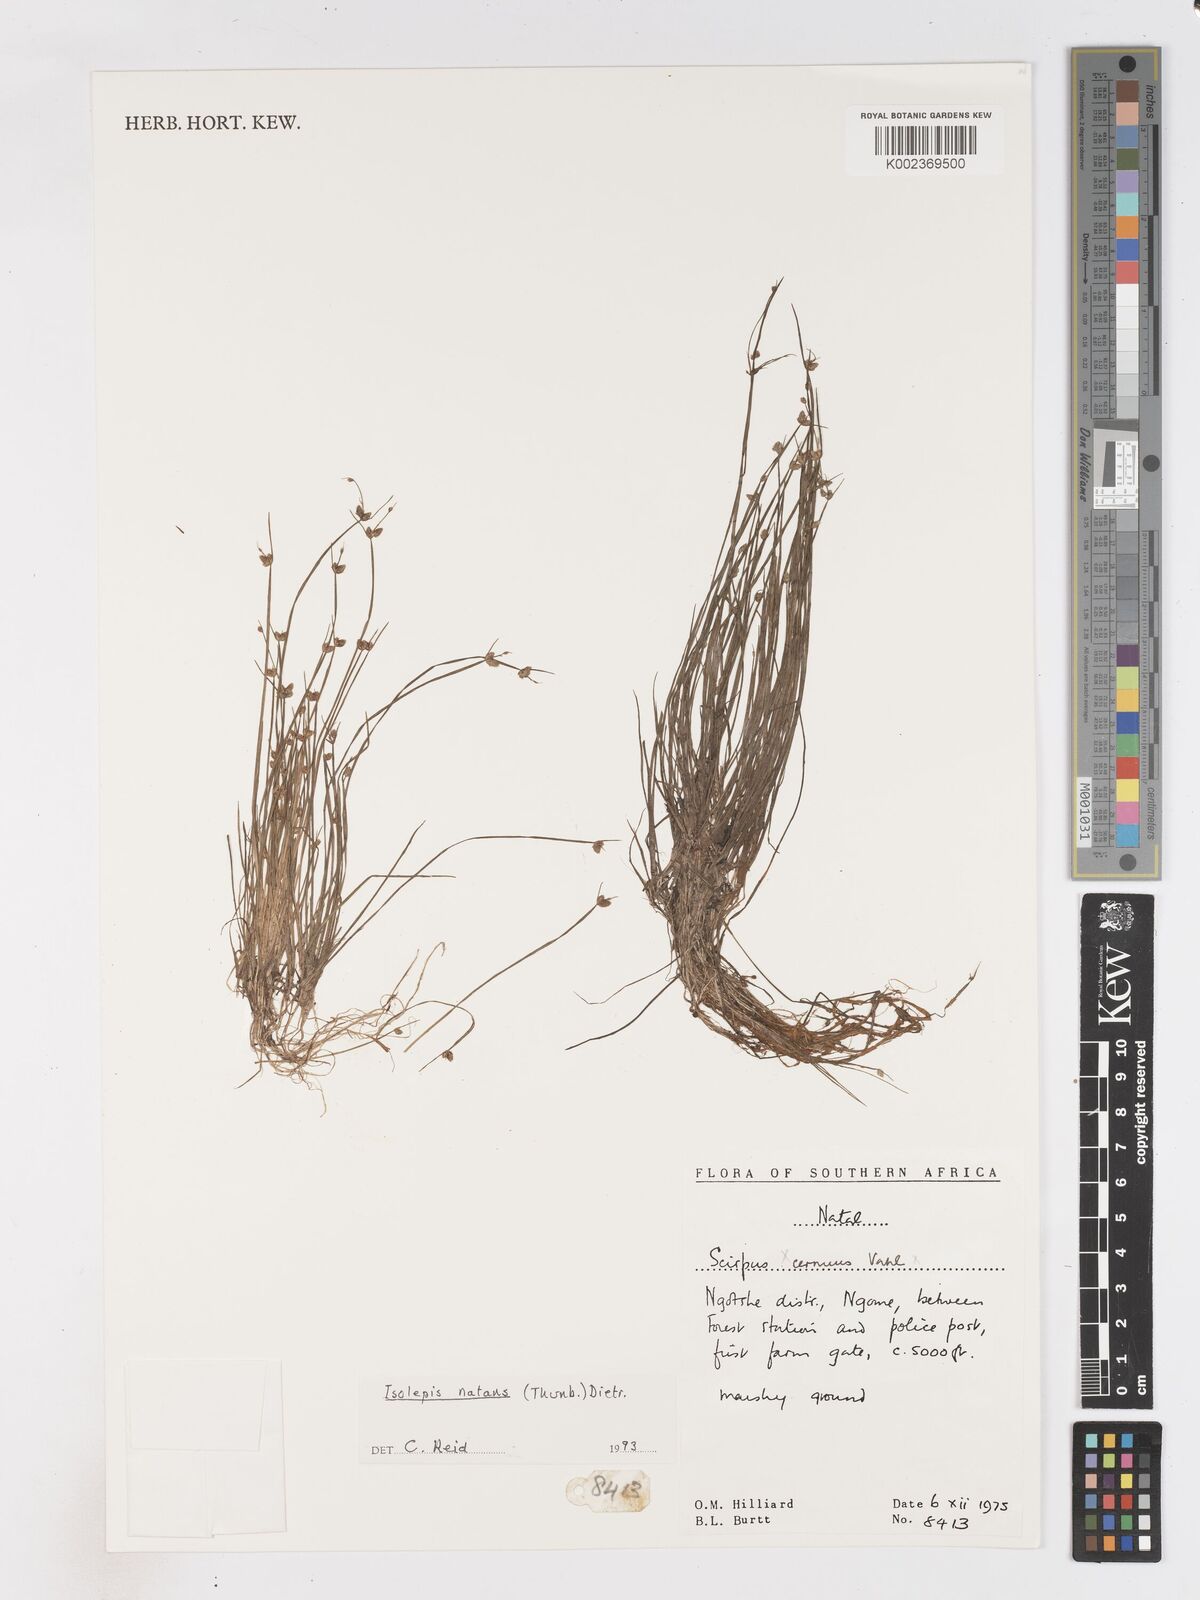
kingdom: Plantae
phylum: Tracheophyta
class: Liliopsida
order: Poales
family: Cyperaceae
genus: Isolepis
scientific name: Isolepis natans
